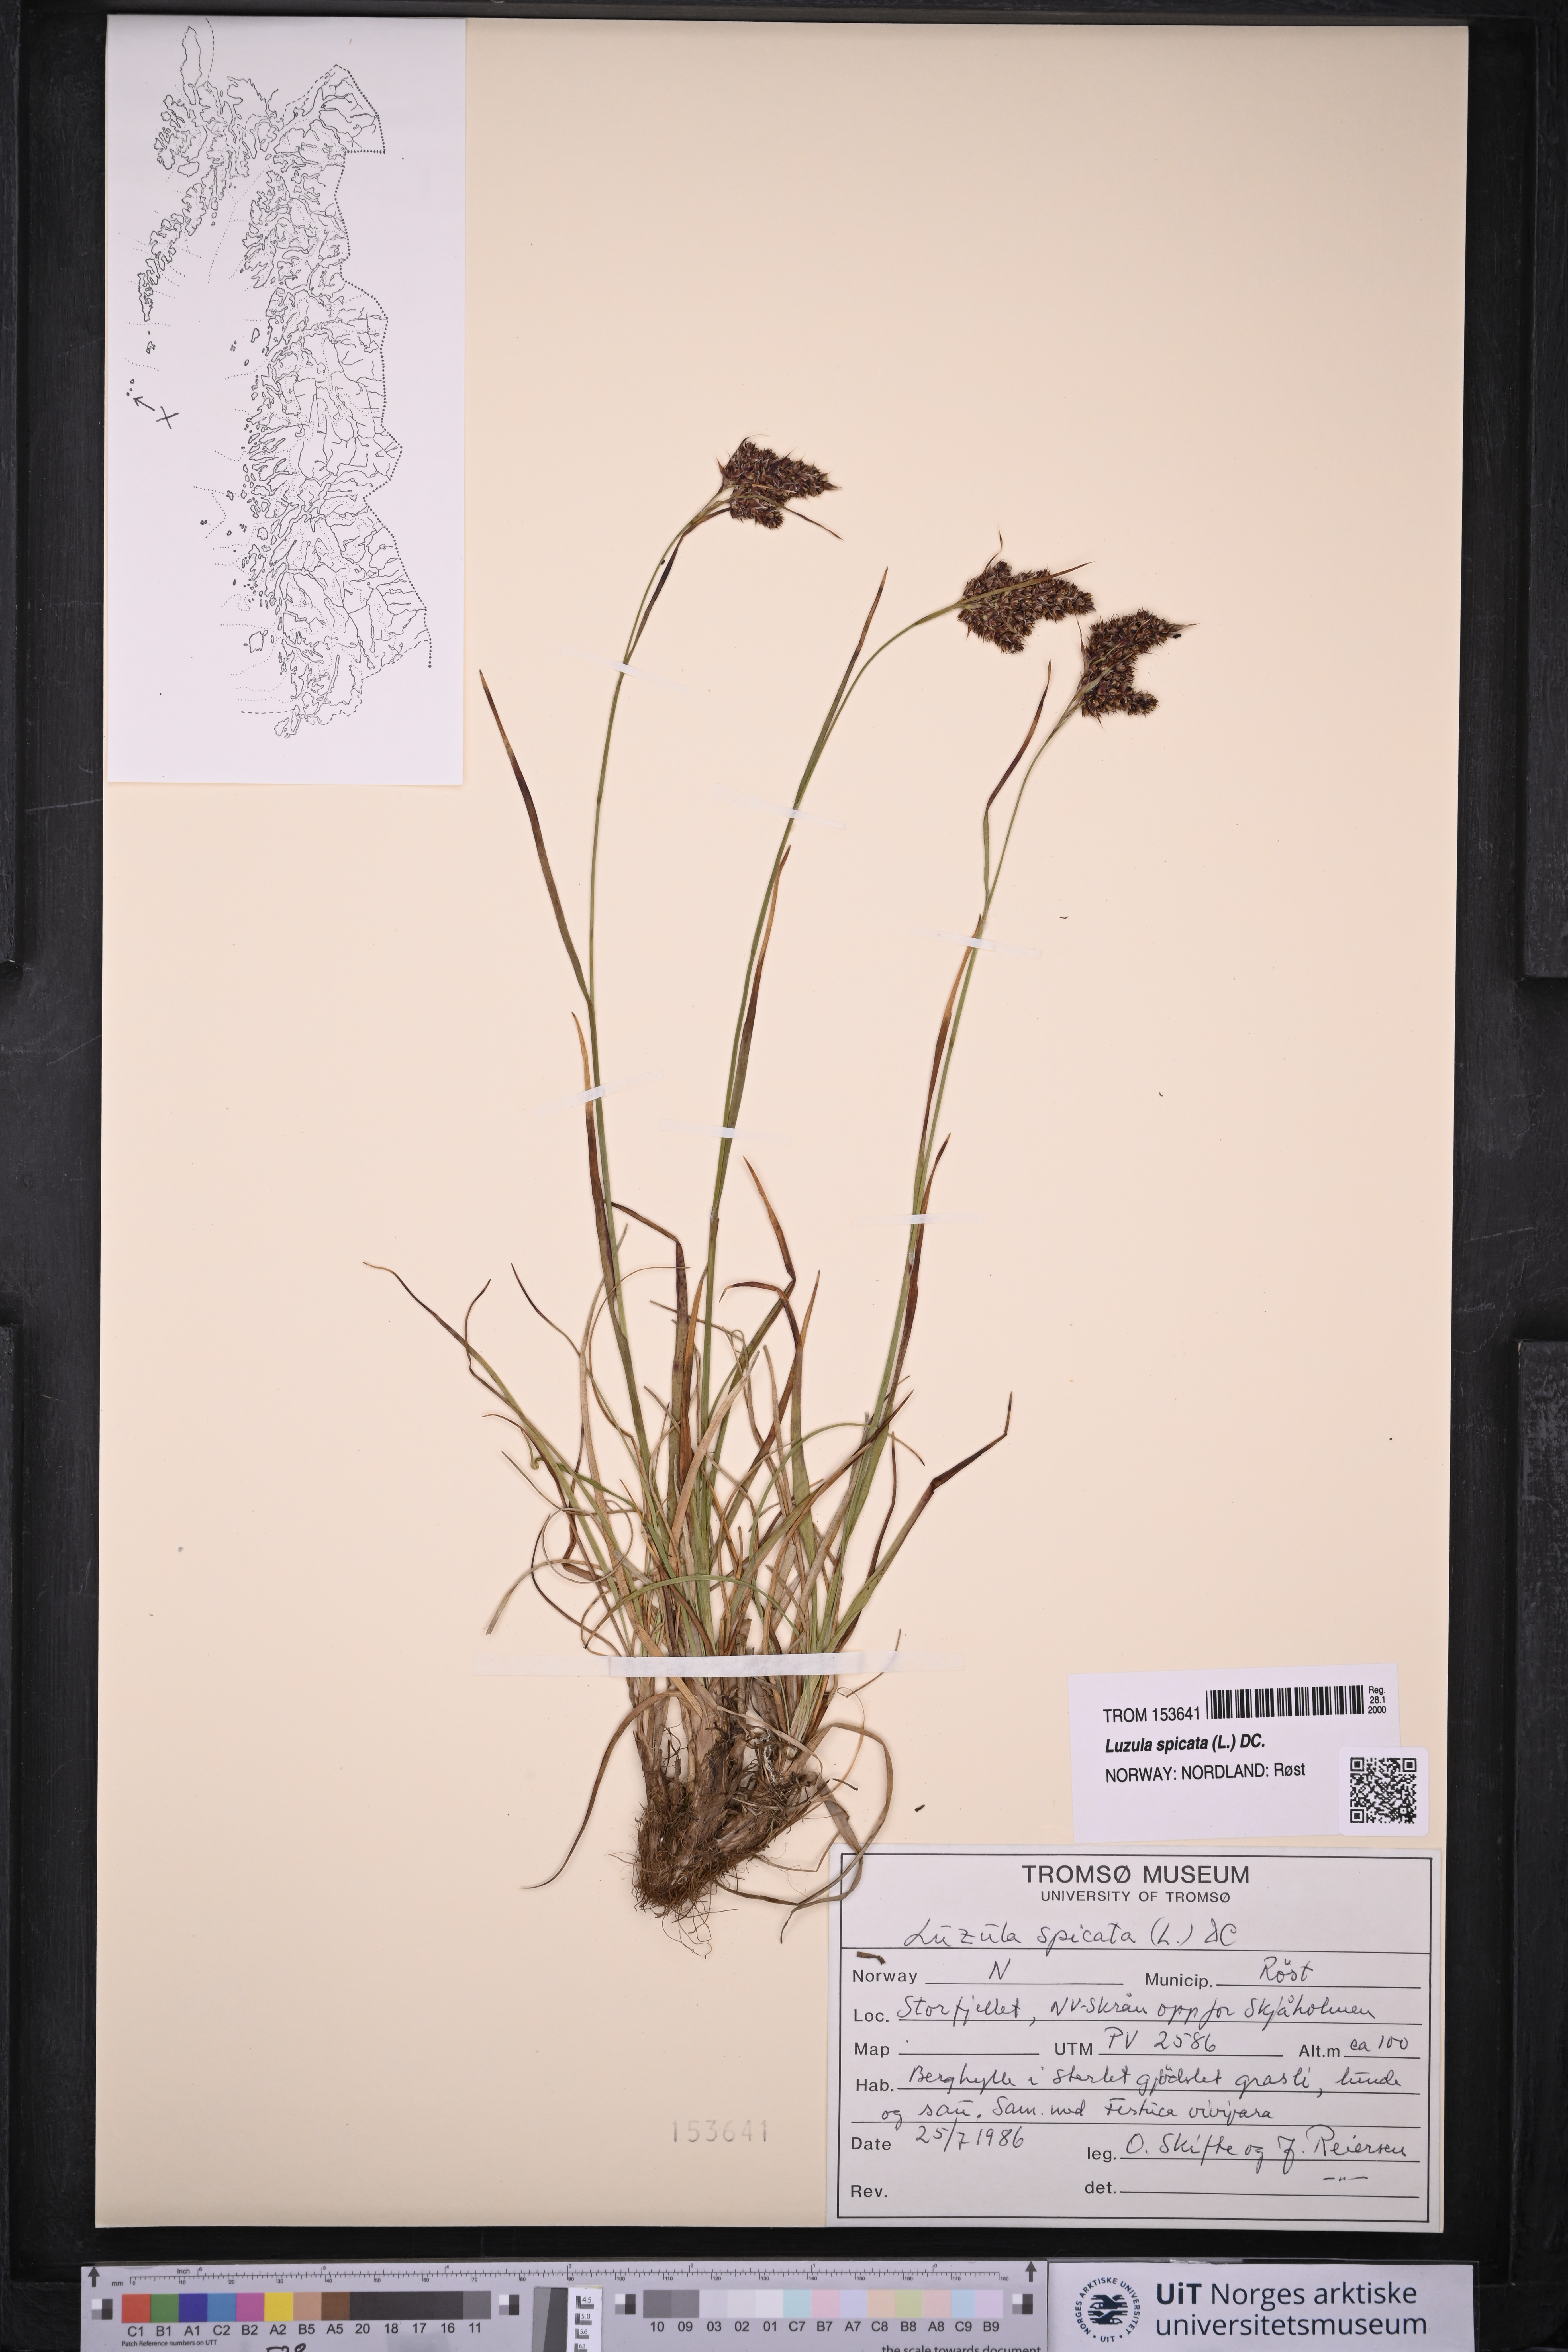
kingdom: Plantae
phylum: Tracheophyta
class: Liliopsida
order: Poales
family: Juncaceae
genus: Luzula
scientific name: Luzula spicata
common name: Spiked wood-rush
